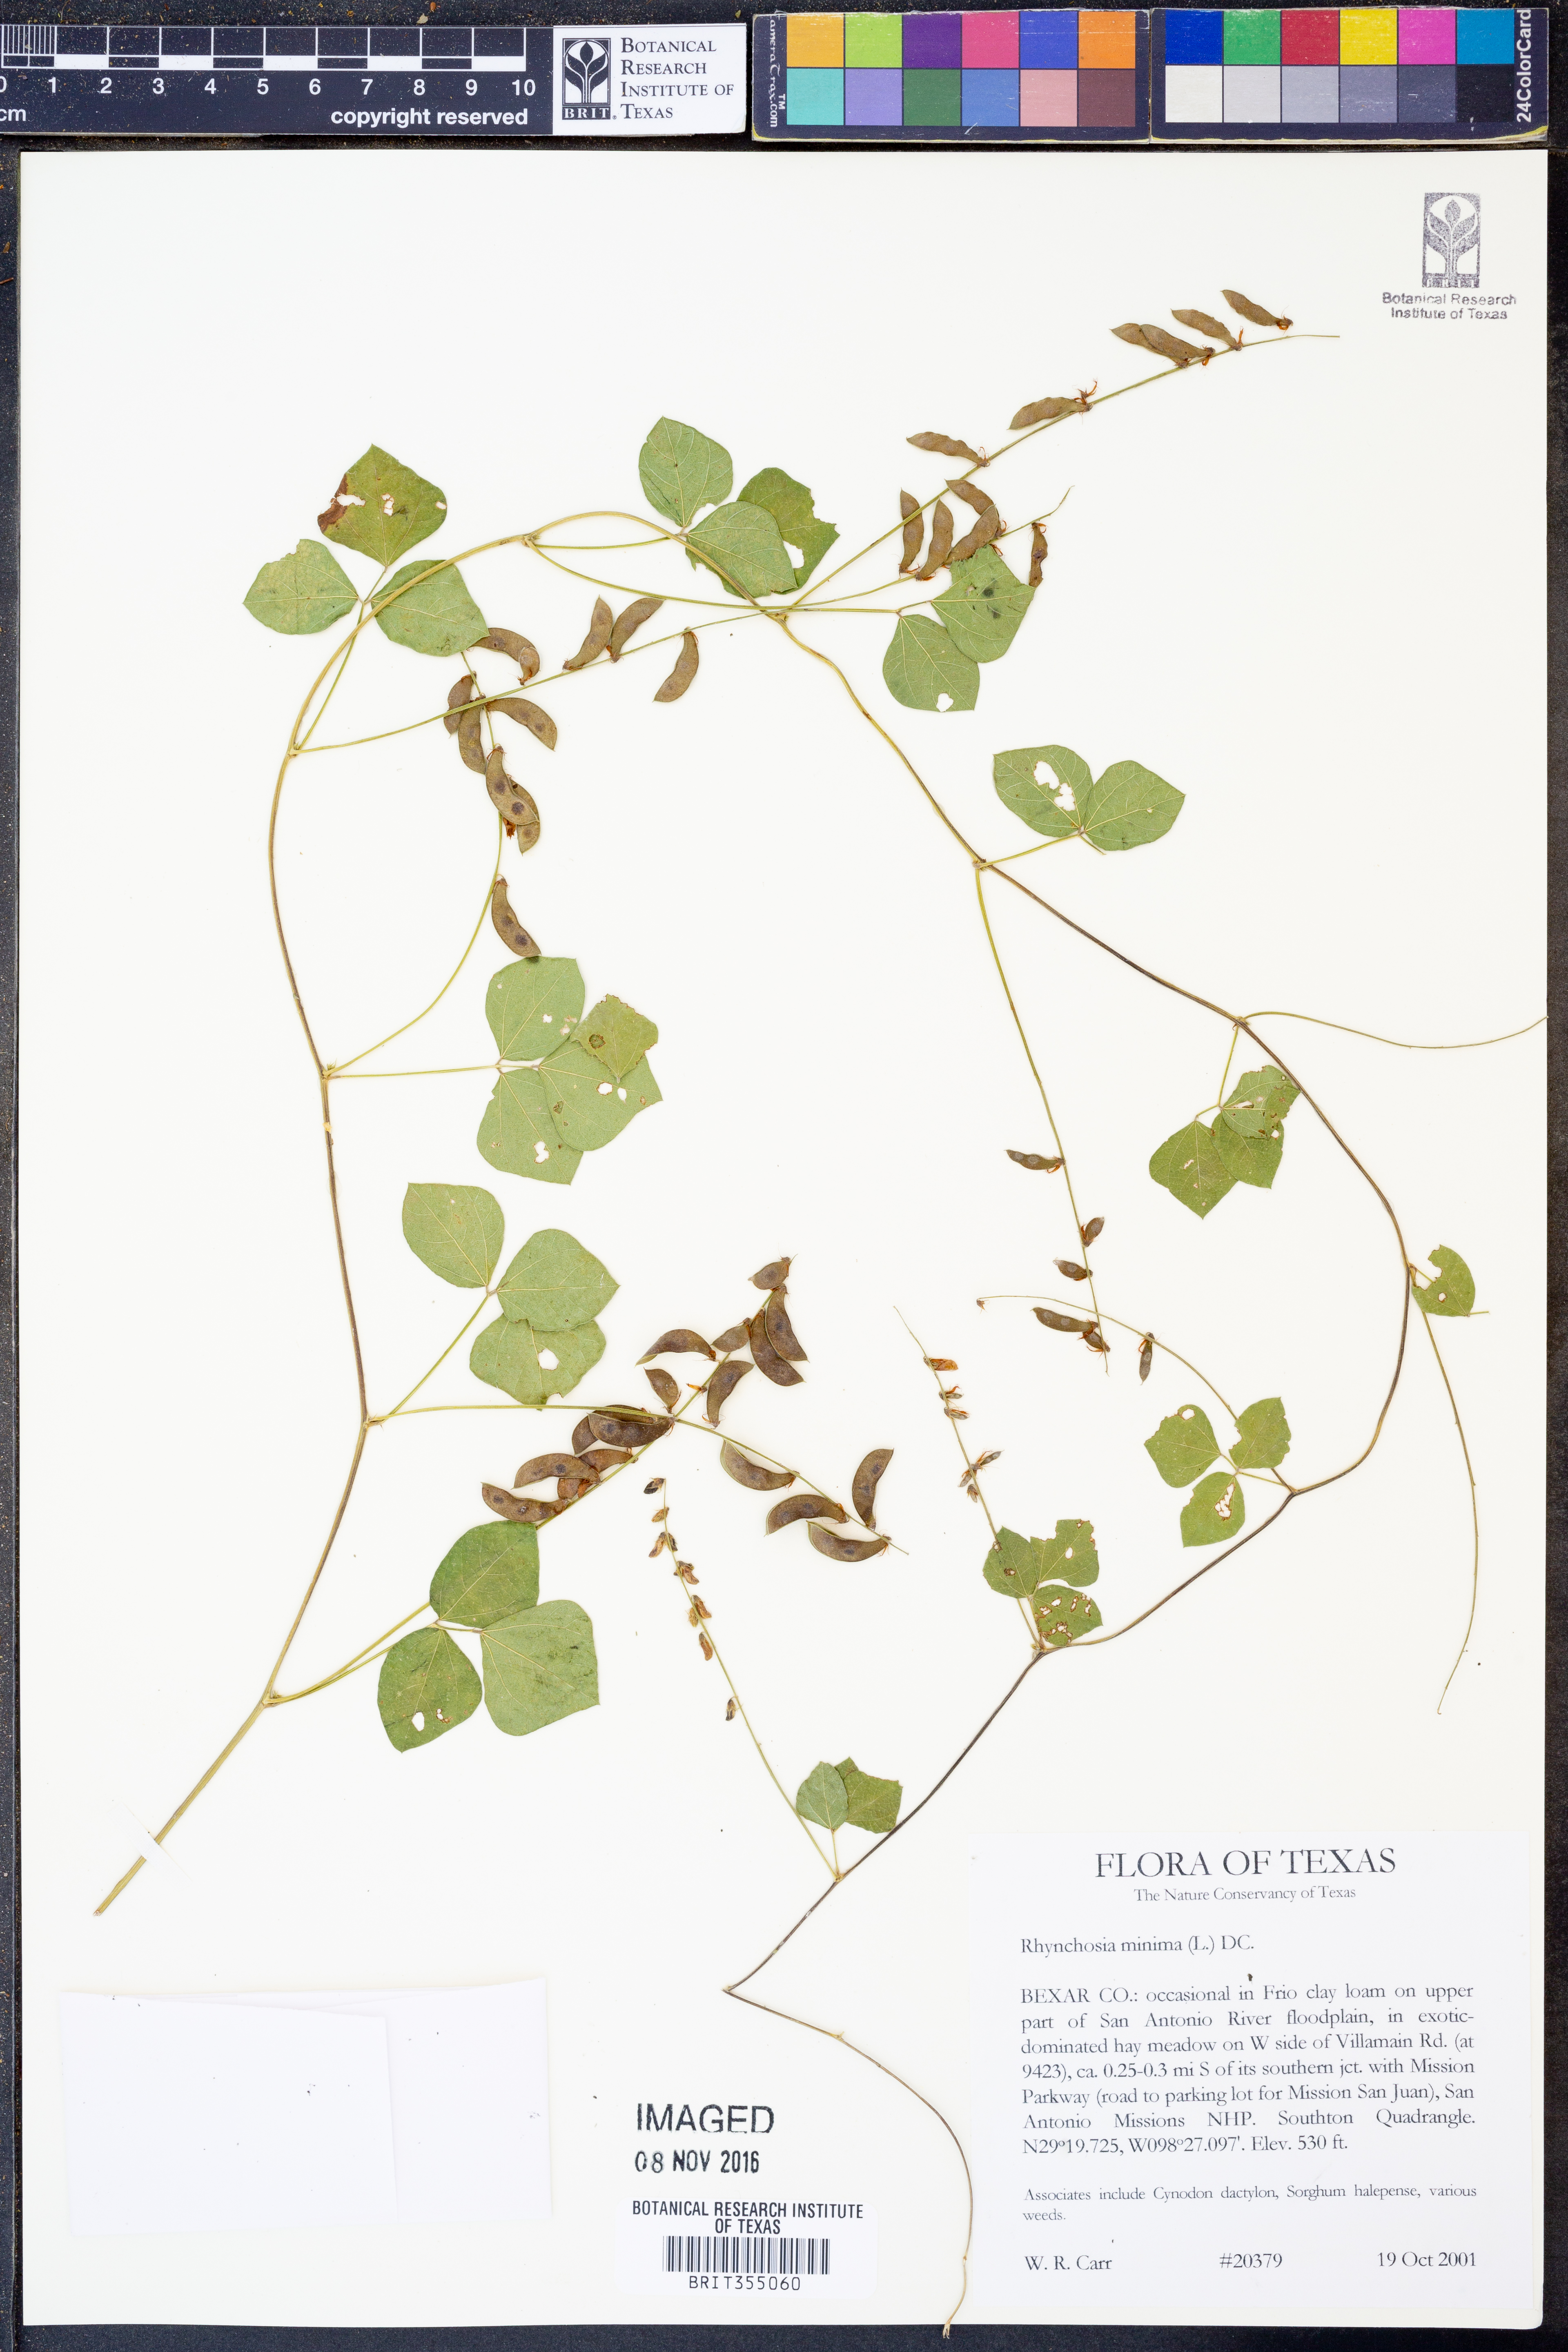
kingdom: Plantae
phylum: Tracheophyta
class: Magnoliopsida
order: Fabales
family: Fabaceae
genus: Rhynchosia
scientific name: Rhynchosia minima
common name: Least snoutbean
